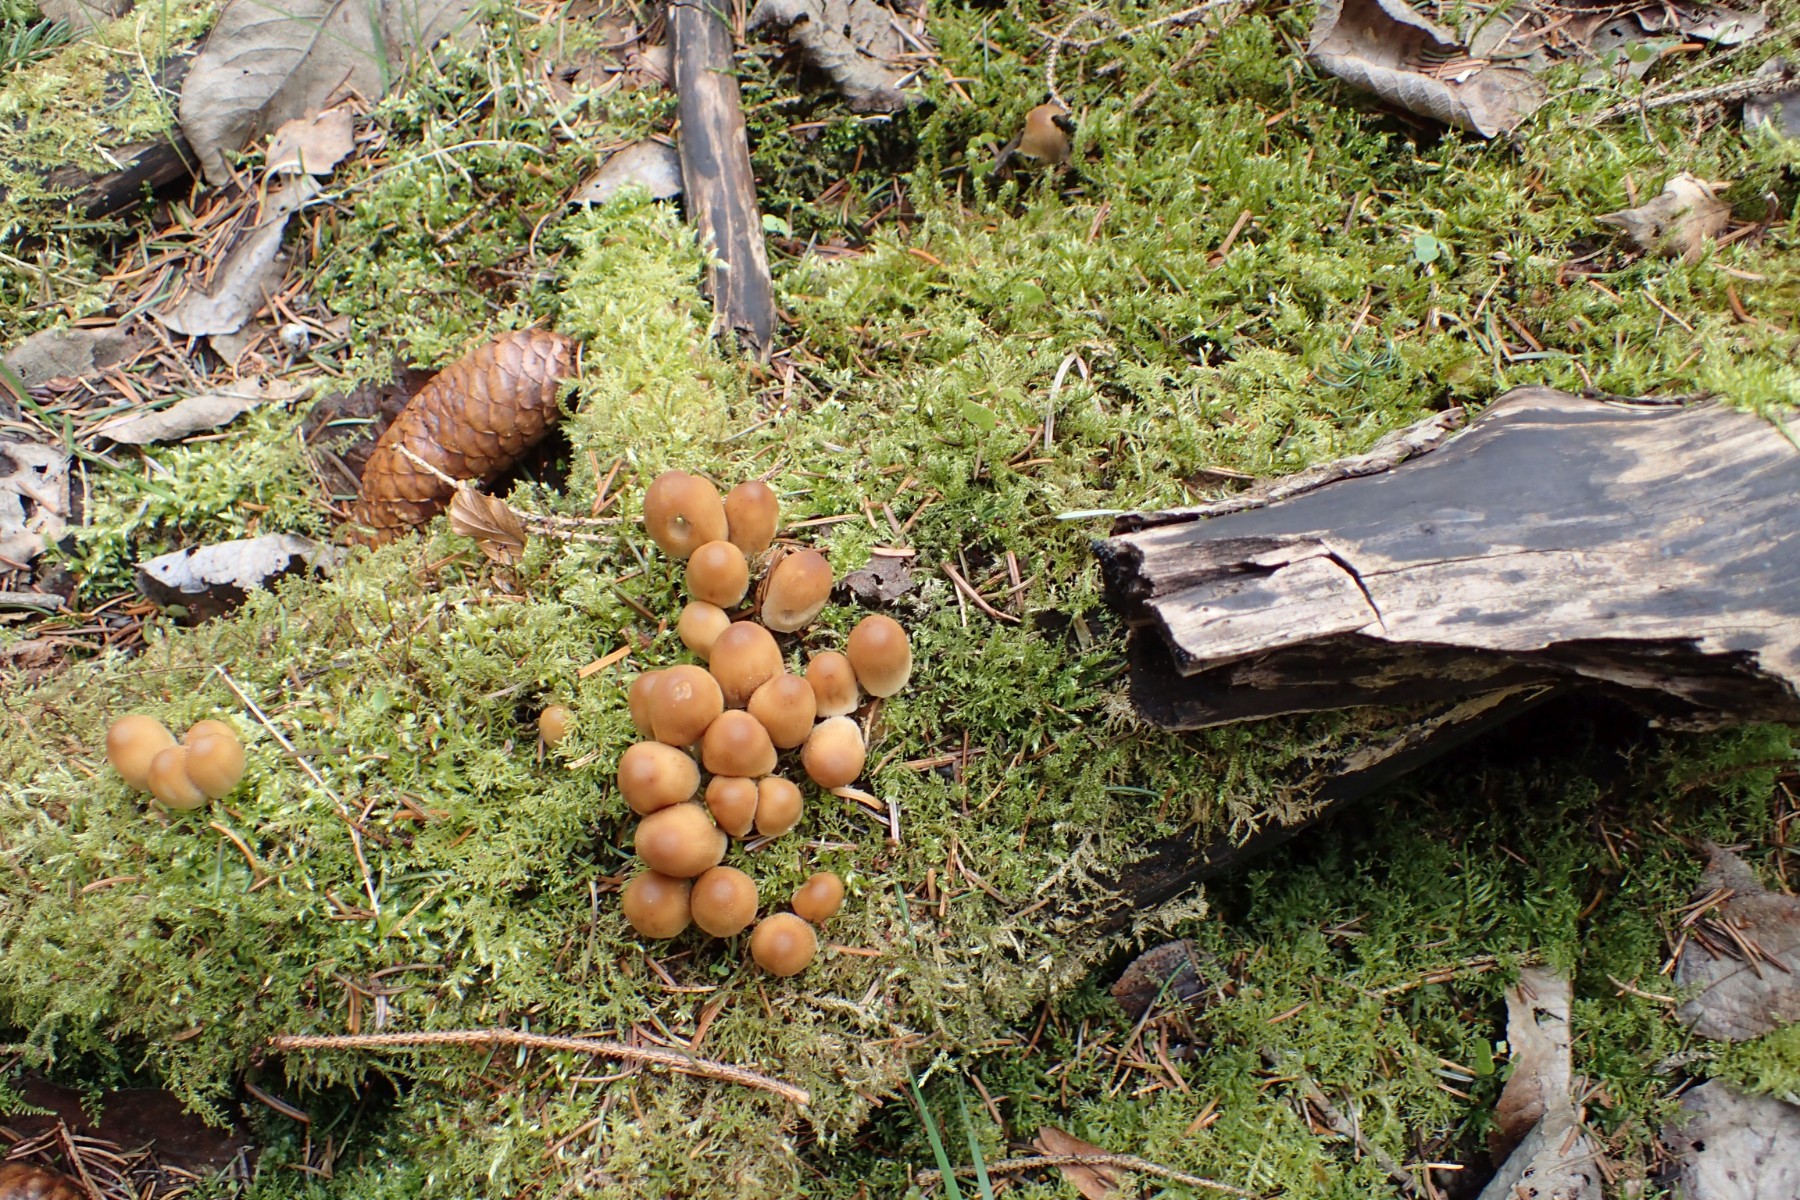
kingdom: Fungi
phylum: Basidiomycota
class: Agaricomycetes
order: Agaricales
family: Psathyrellaceae
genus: Coprinellus
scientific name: Coprinellus
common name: blækhat
